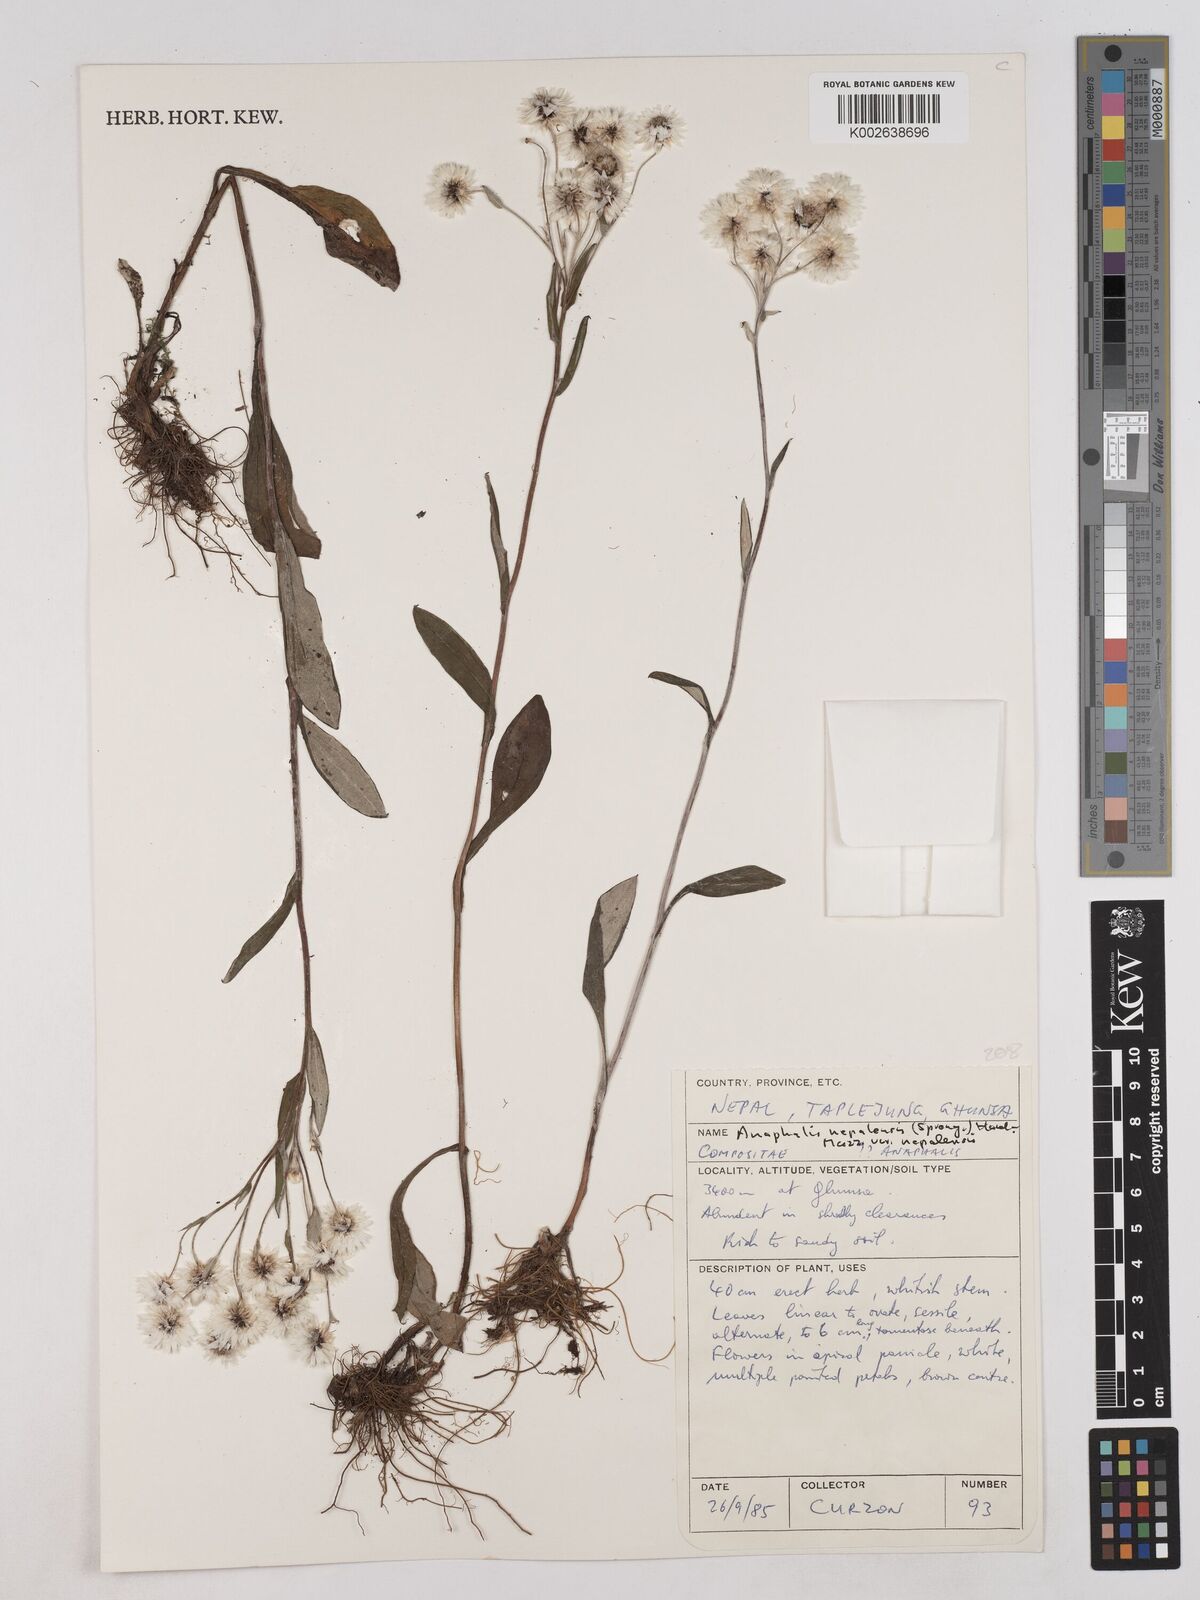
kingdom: Plantae
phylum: Tracheophyta
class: Magnoliopsida
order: Asterales
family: Asteraceae
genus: Anaphalioides
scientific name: Anaphalioides trinervis
